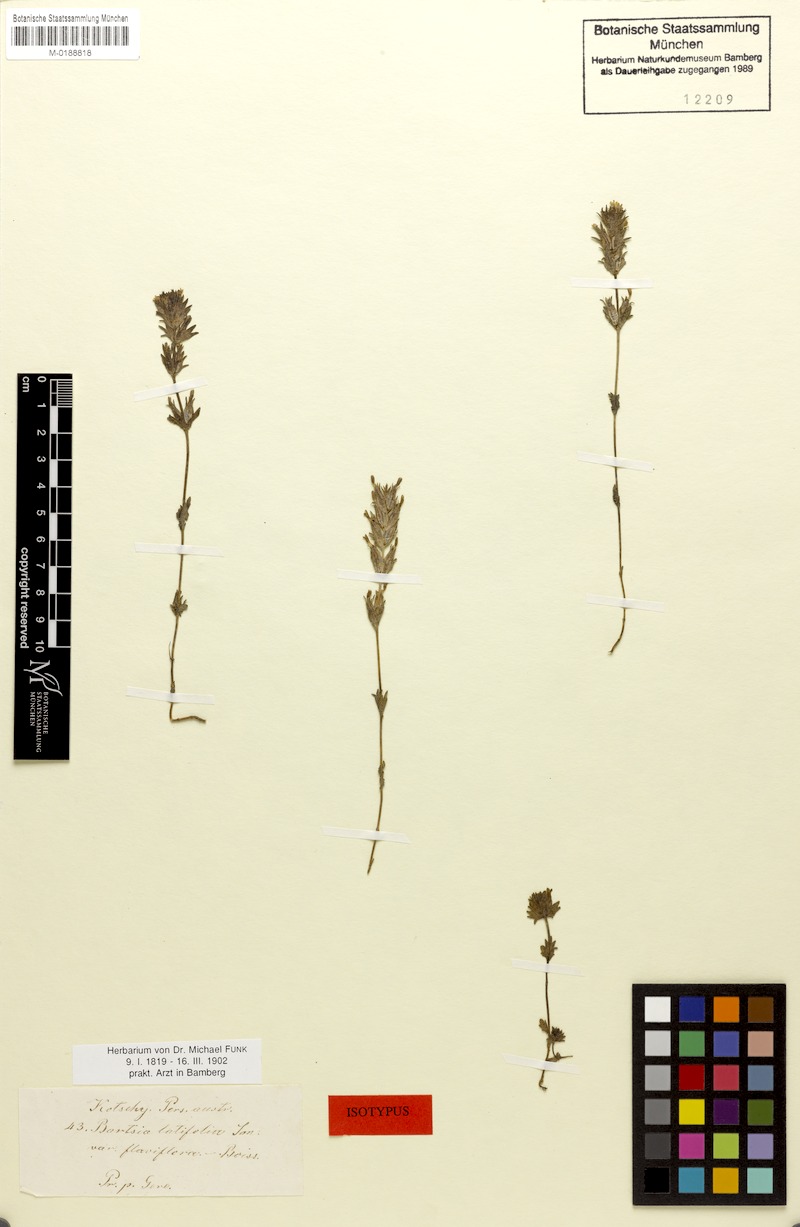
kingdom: Plantae
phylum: Tracheophyta
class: Magnoliopsida
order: Lamiales
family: Orobanchaceae
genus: Parentucellia
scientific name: Parentucellia flaviflora
